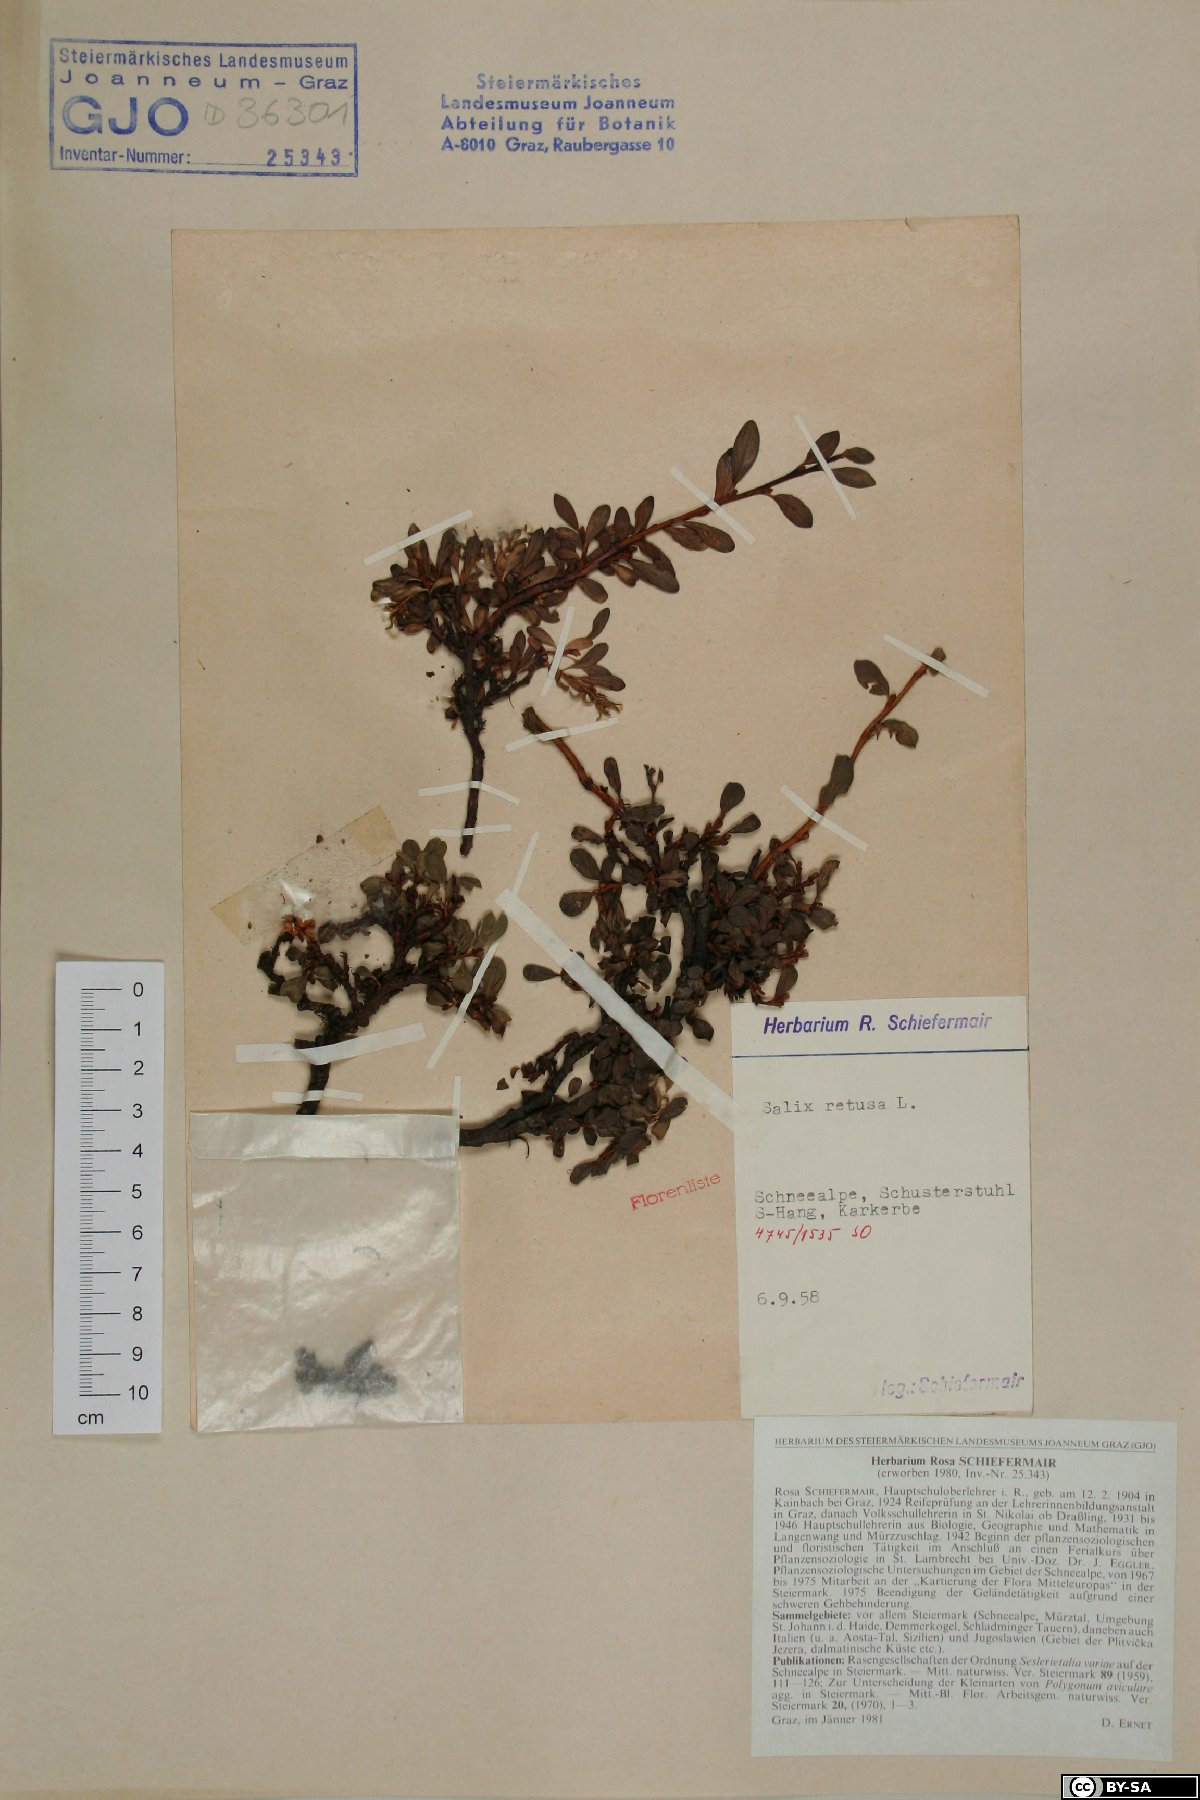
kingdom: Plantae
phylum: Tracheophyta
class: Magnoliopsida
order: Malpighiales
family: Salicaceae
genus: Salix
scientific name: Salix retusa
